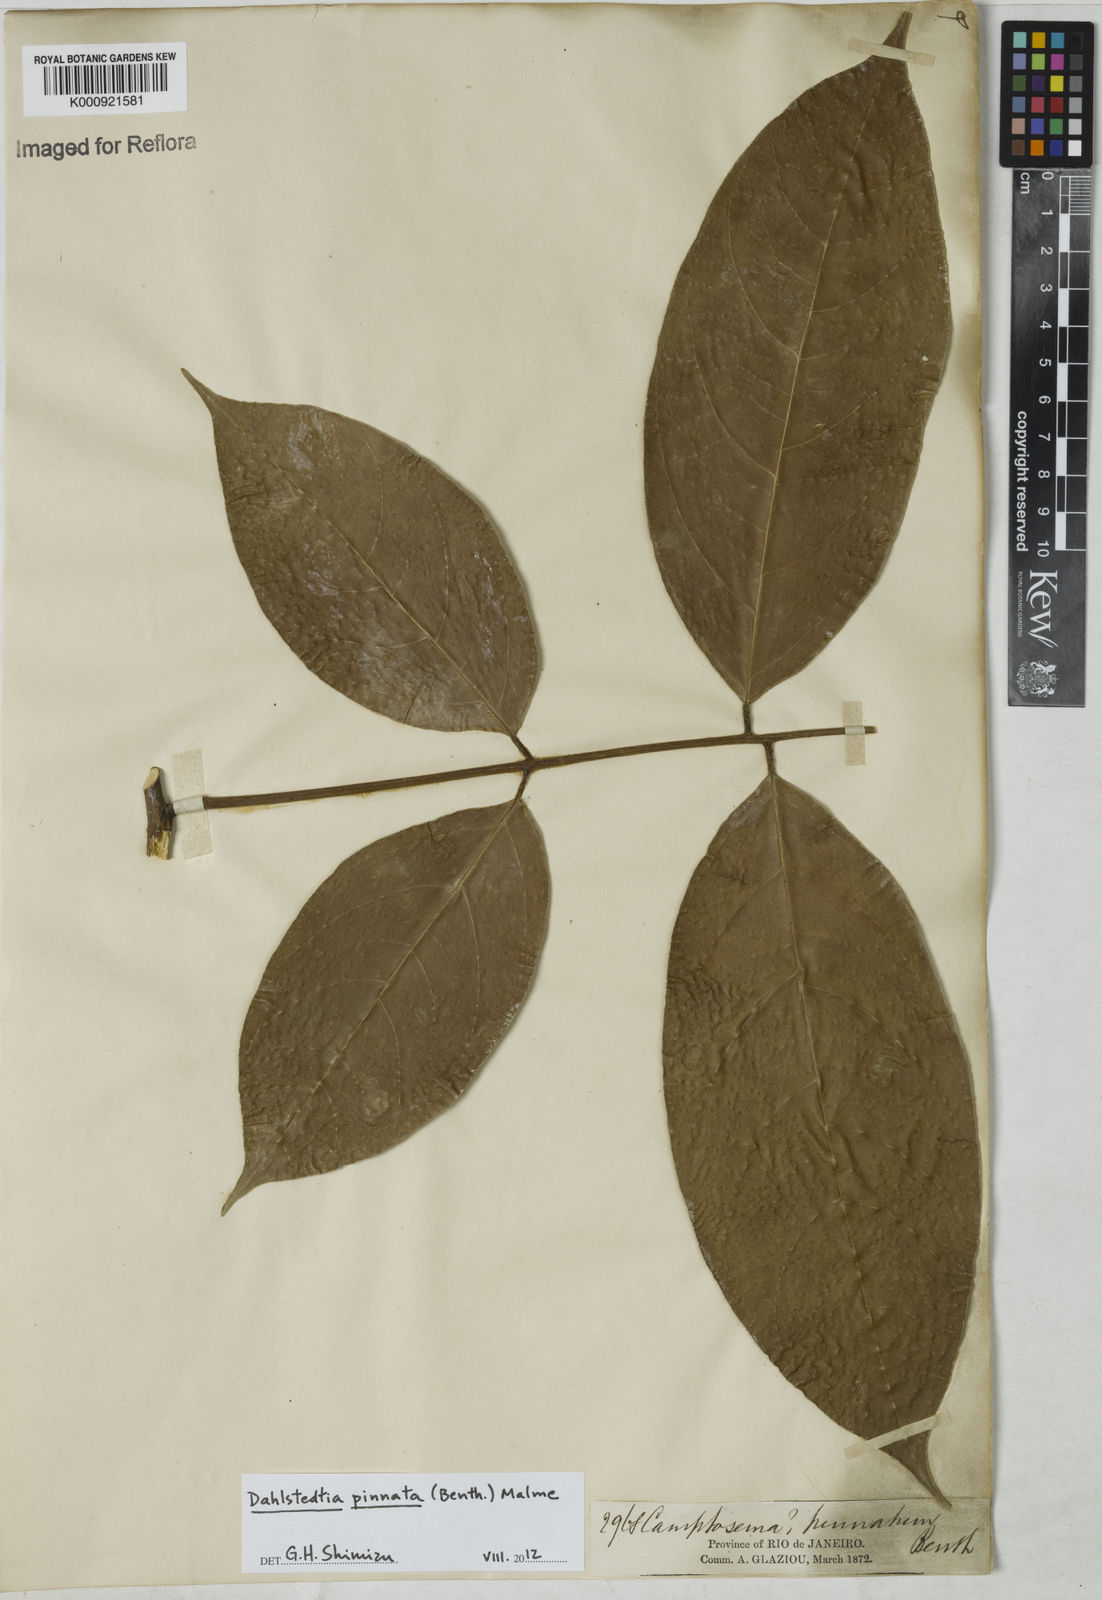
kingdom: Plantae
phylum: Tracheophyta
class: Magnoliopsida
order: Fabales
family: Fabaceae
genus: Dahlstedtia
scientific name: Dahlstedtia pinnata
